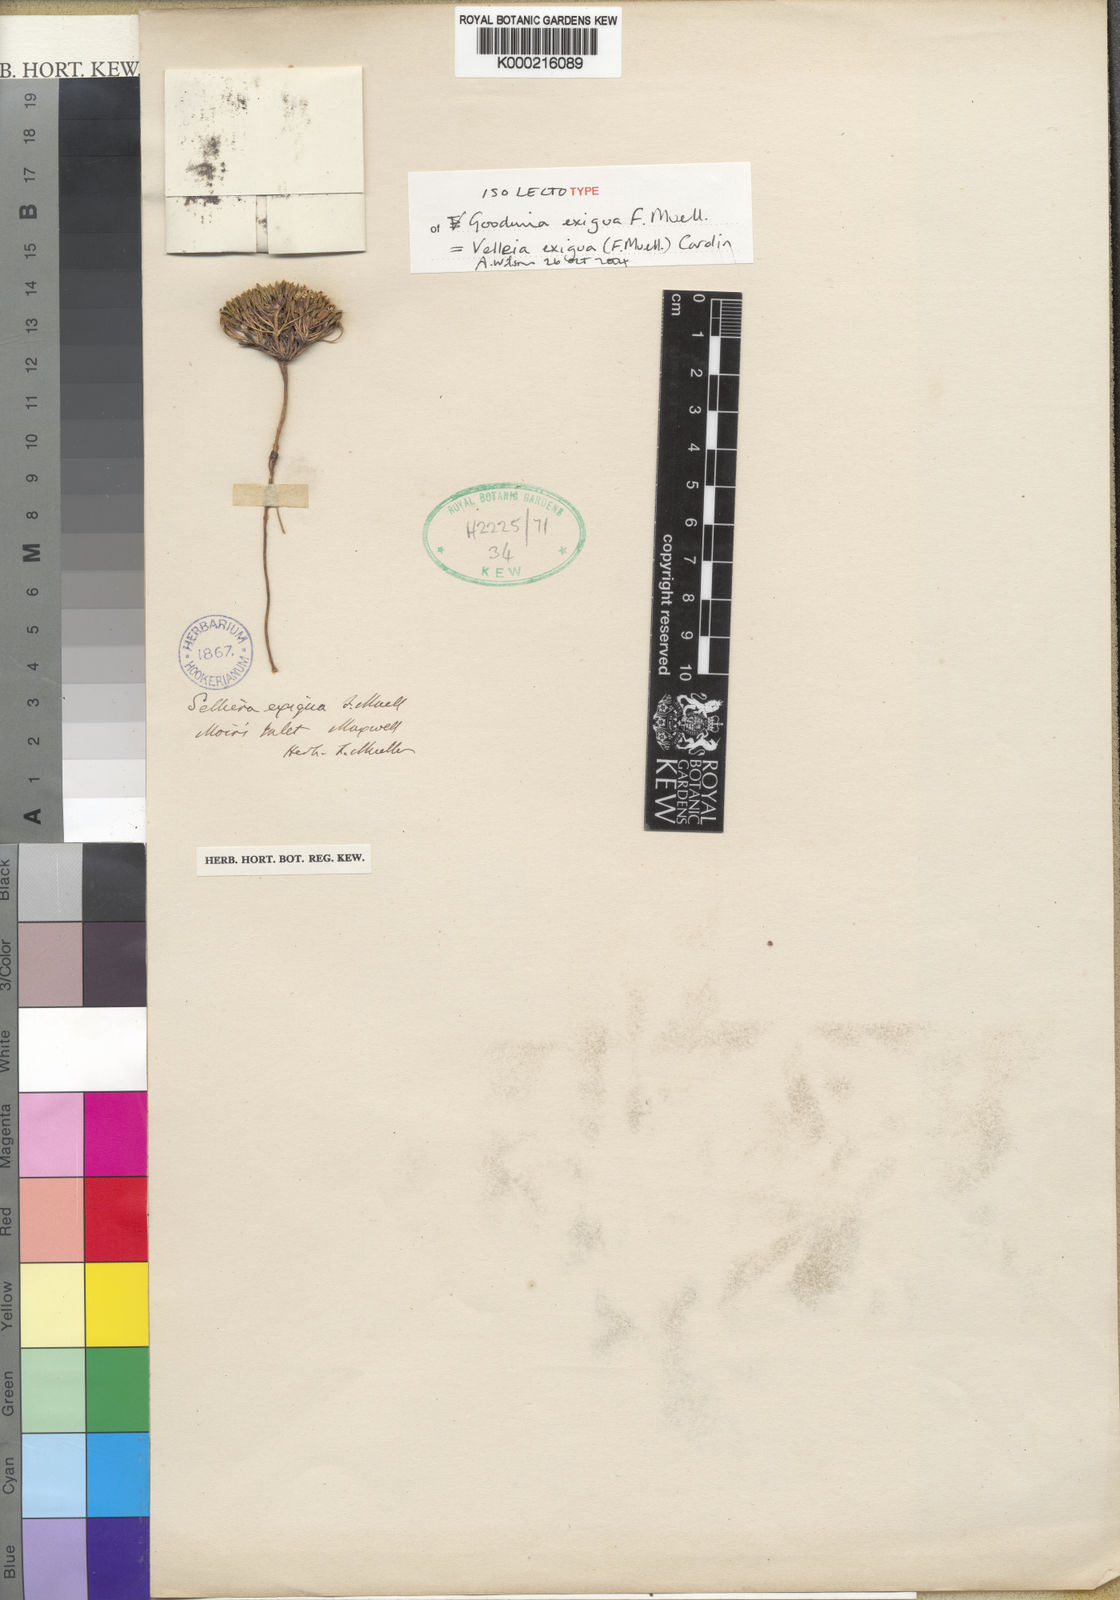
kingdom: Plantae
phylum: Tracheophyta
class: Magnoliopsida
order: Asterales
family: Goodeniaceae
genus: Goodenia
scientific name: Goodenia exigua
